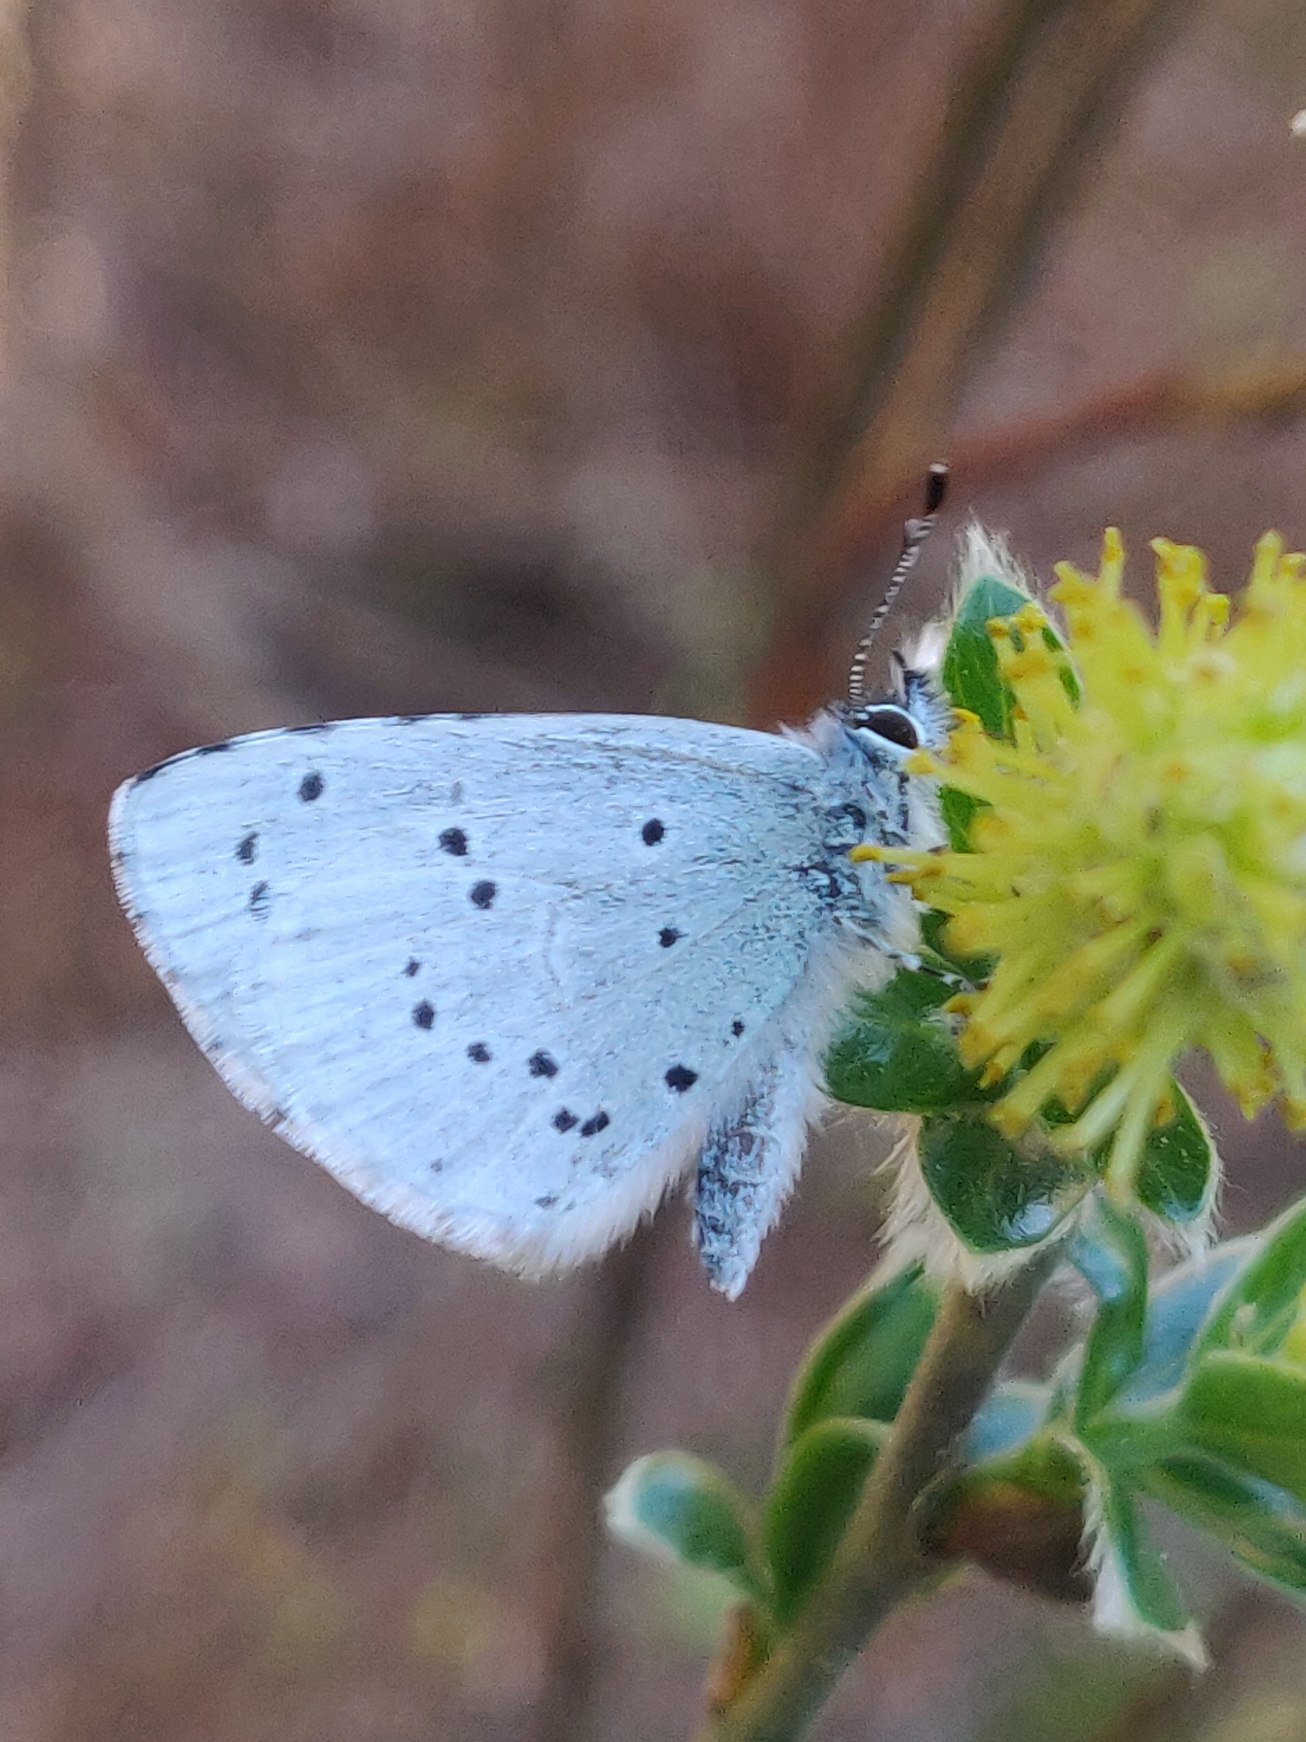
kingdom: Animalia
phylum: Arthropoda
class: Insecta
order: Lepidoptera
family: Lycaenidae
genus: Celastrina
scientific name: Celastrina argiolus
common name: Skovblåfugl
